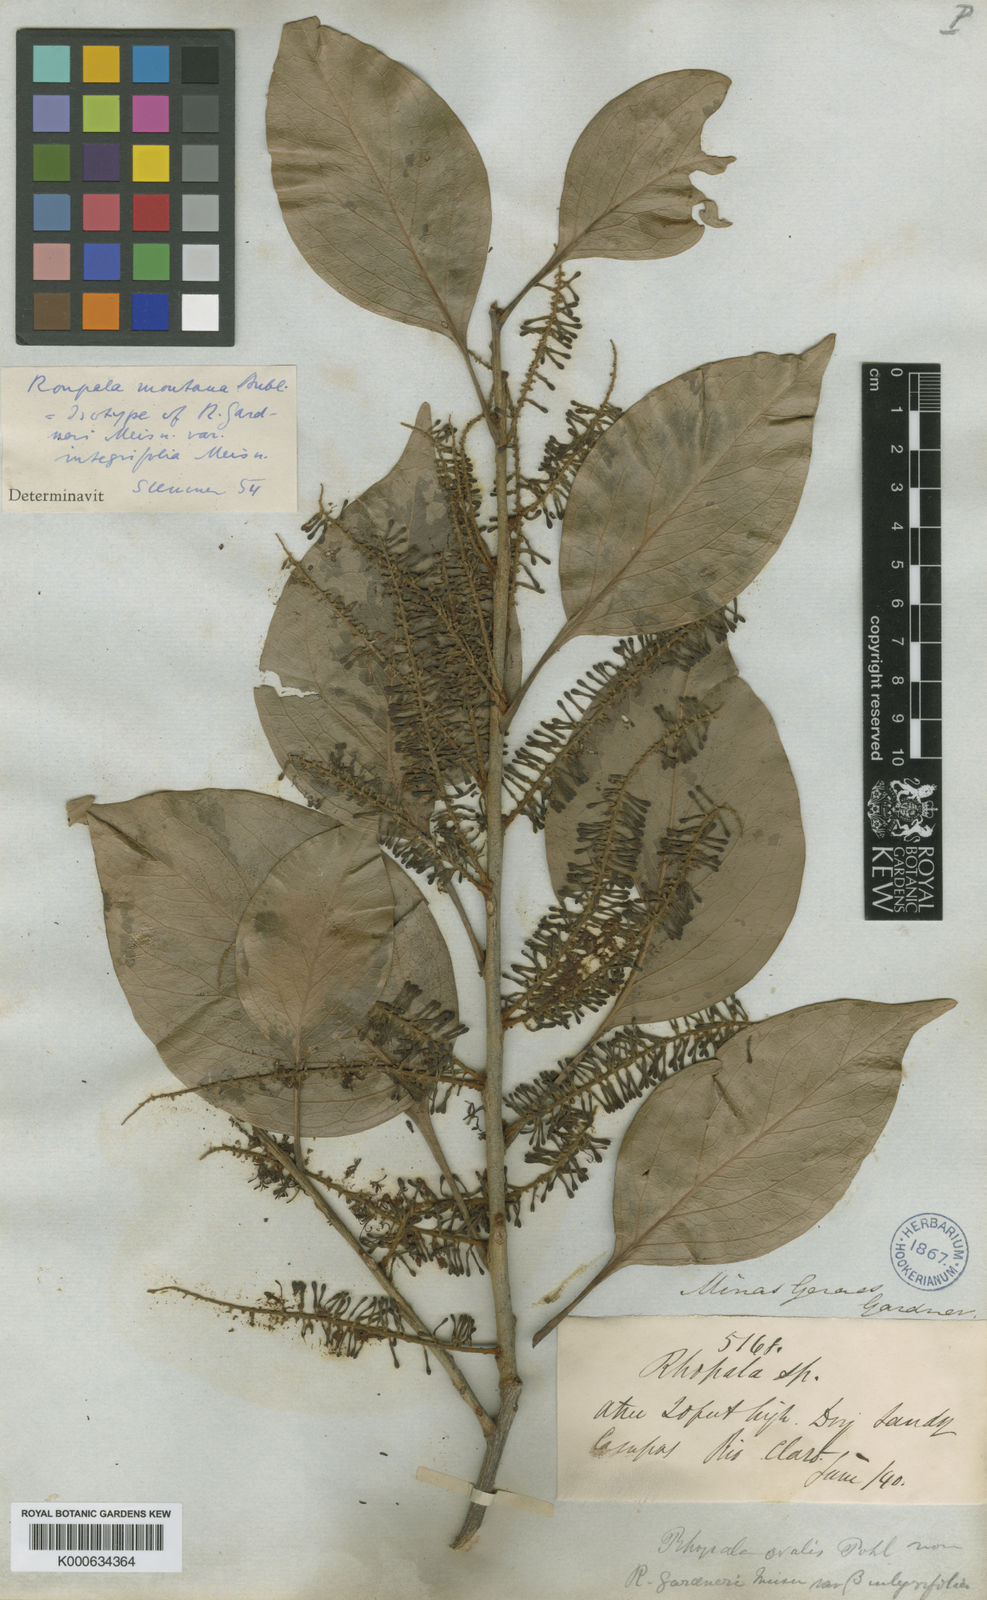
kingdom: Plantae
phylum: Tracheophyta
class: Magnoliopsida
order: Proteales
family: Proteaceae
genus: Roupala
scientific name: Roupala montana
